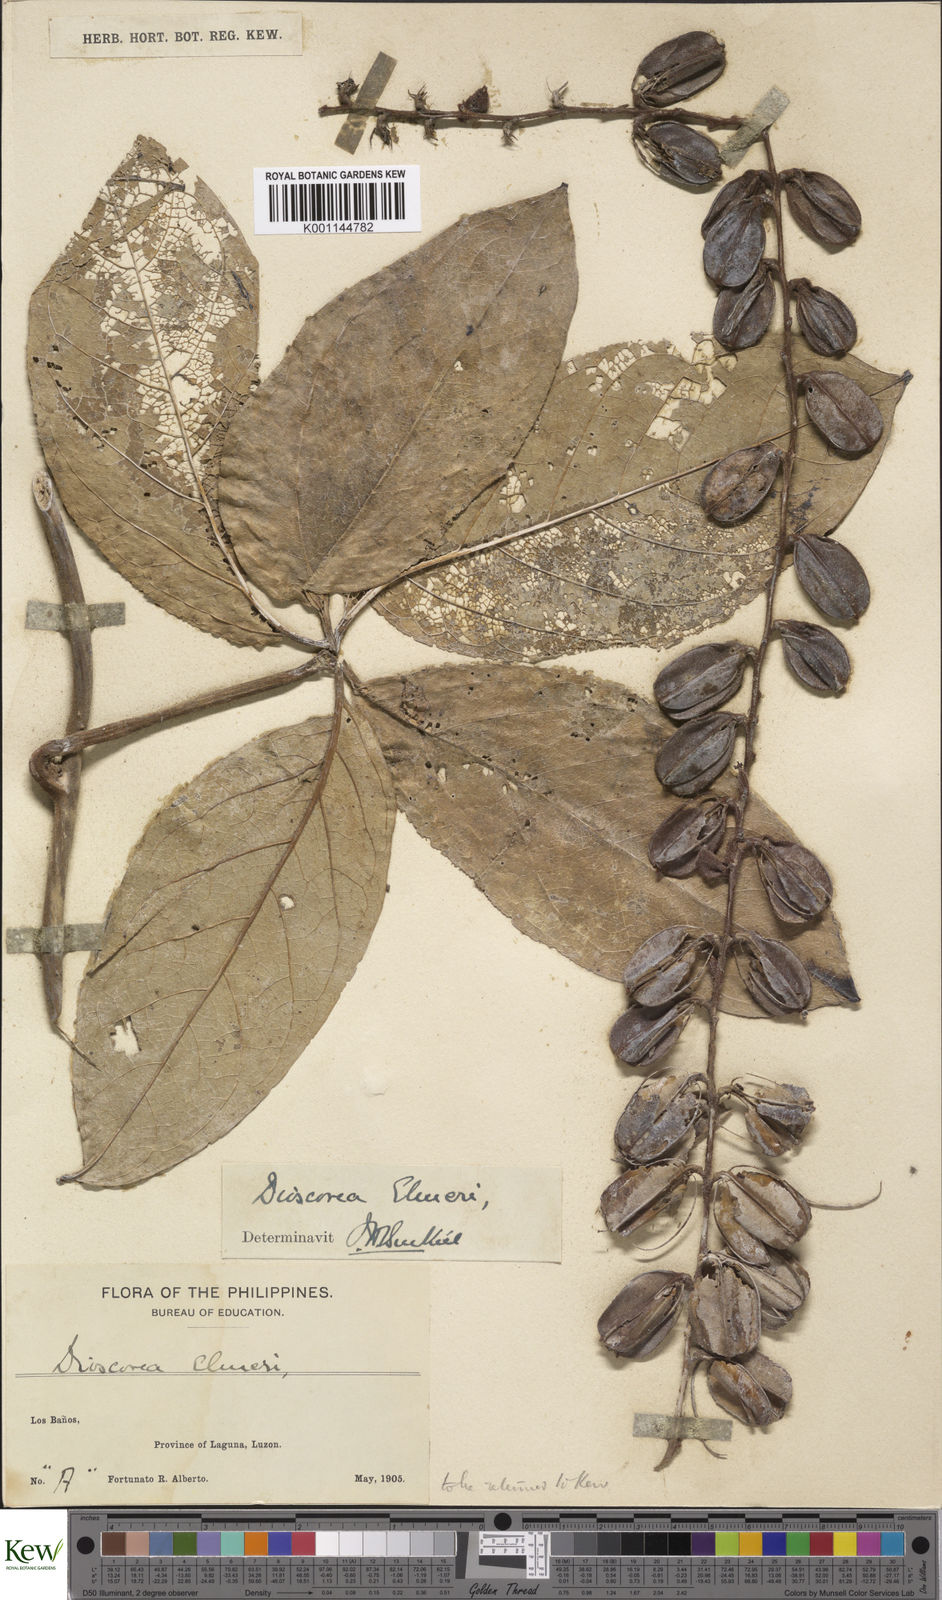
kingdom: Plantae
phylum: Tracheophyta
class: Liliopsida
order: Dioscoreales
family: Dioscoreaceae
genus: Dioscorea
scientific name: Dioscorea cumingii
